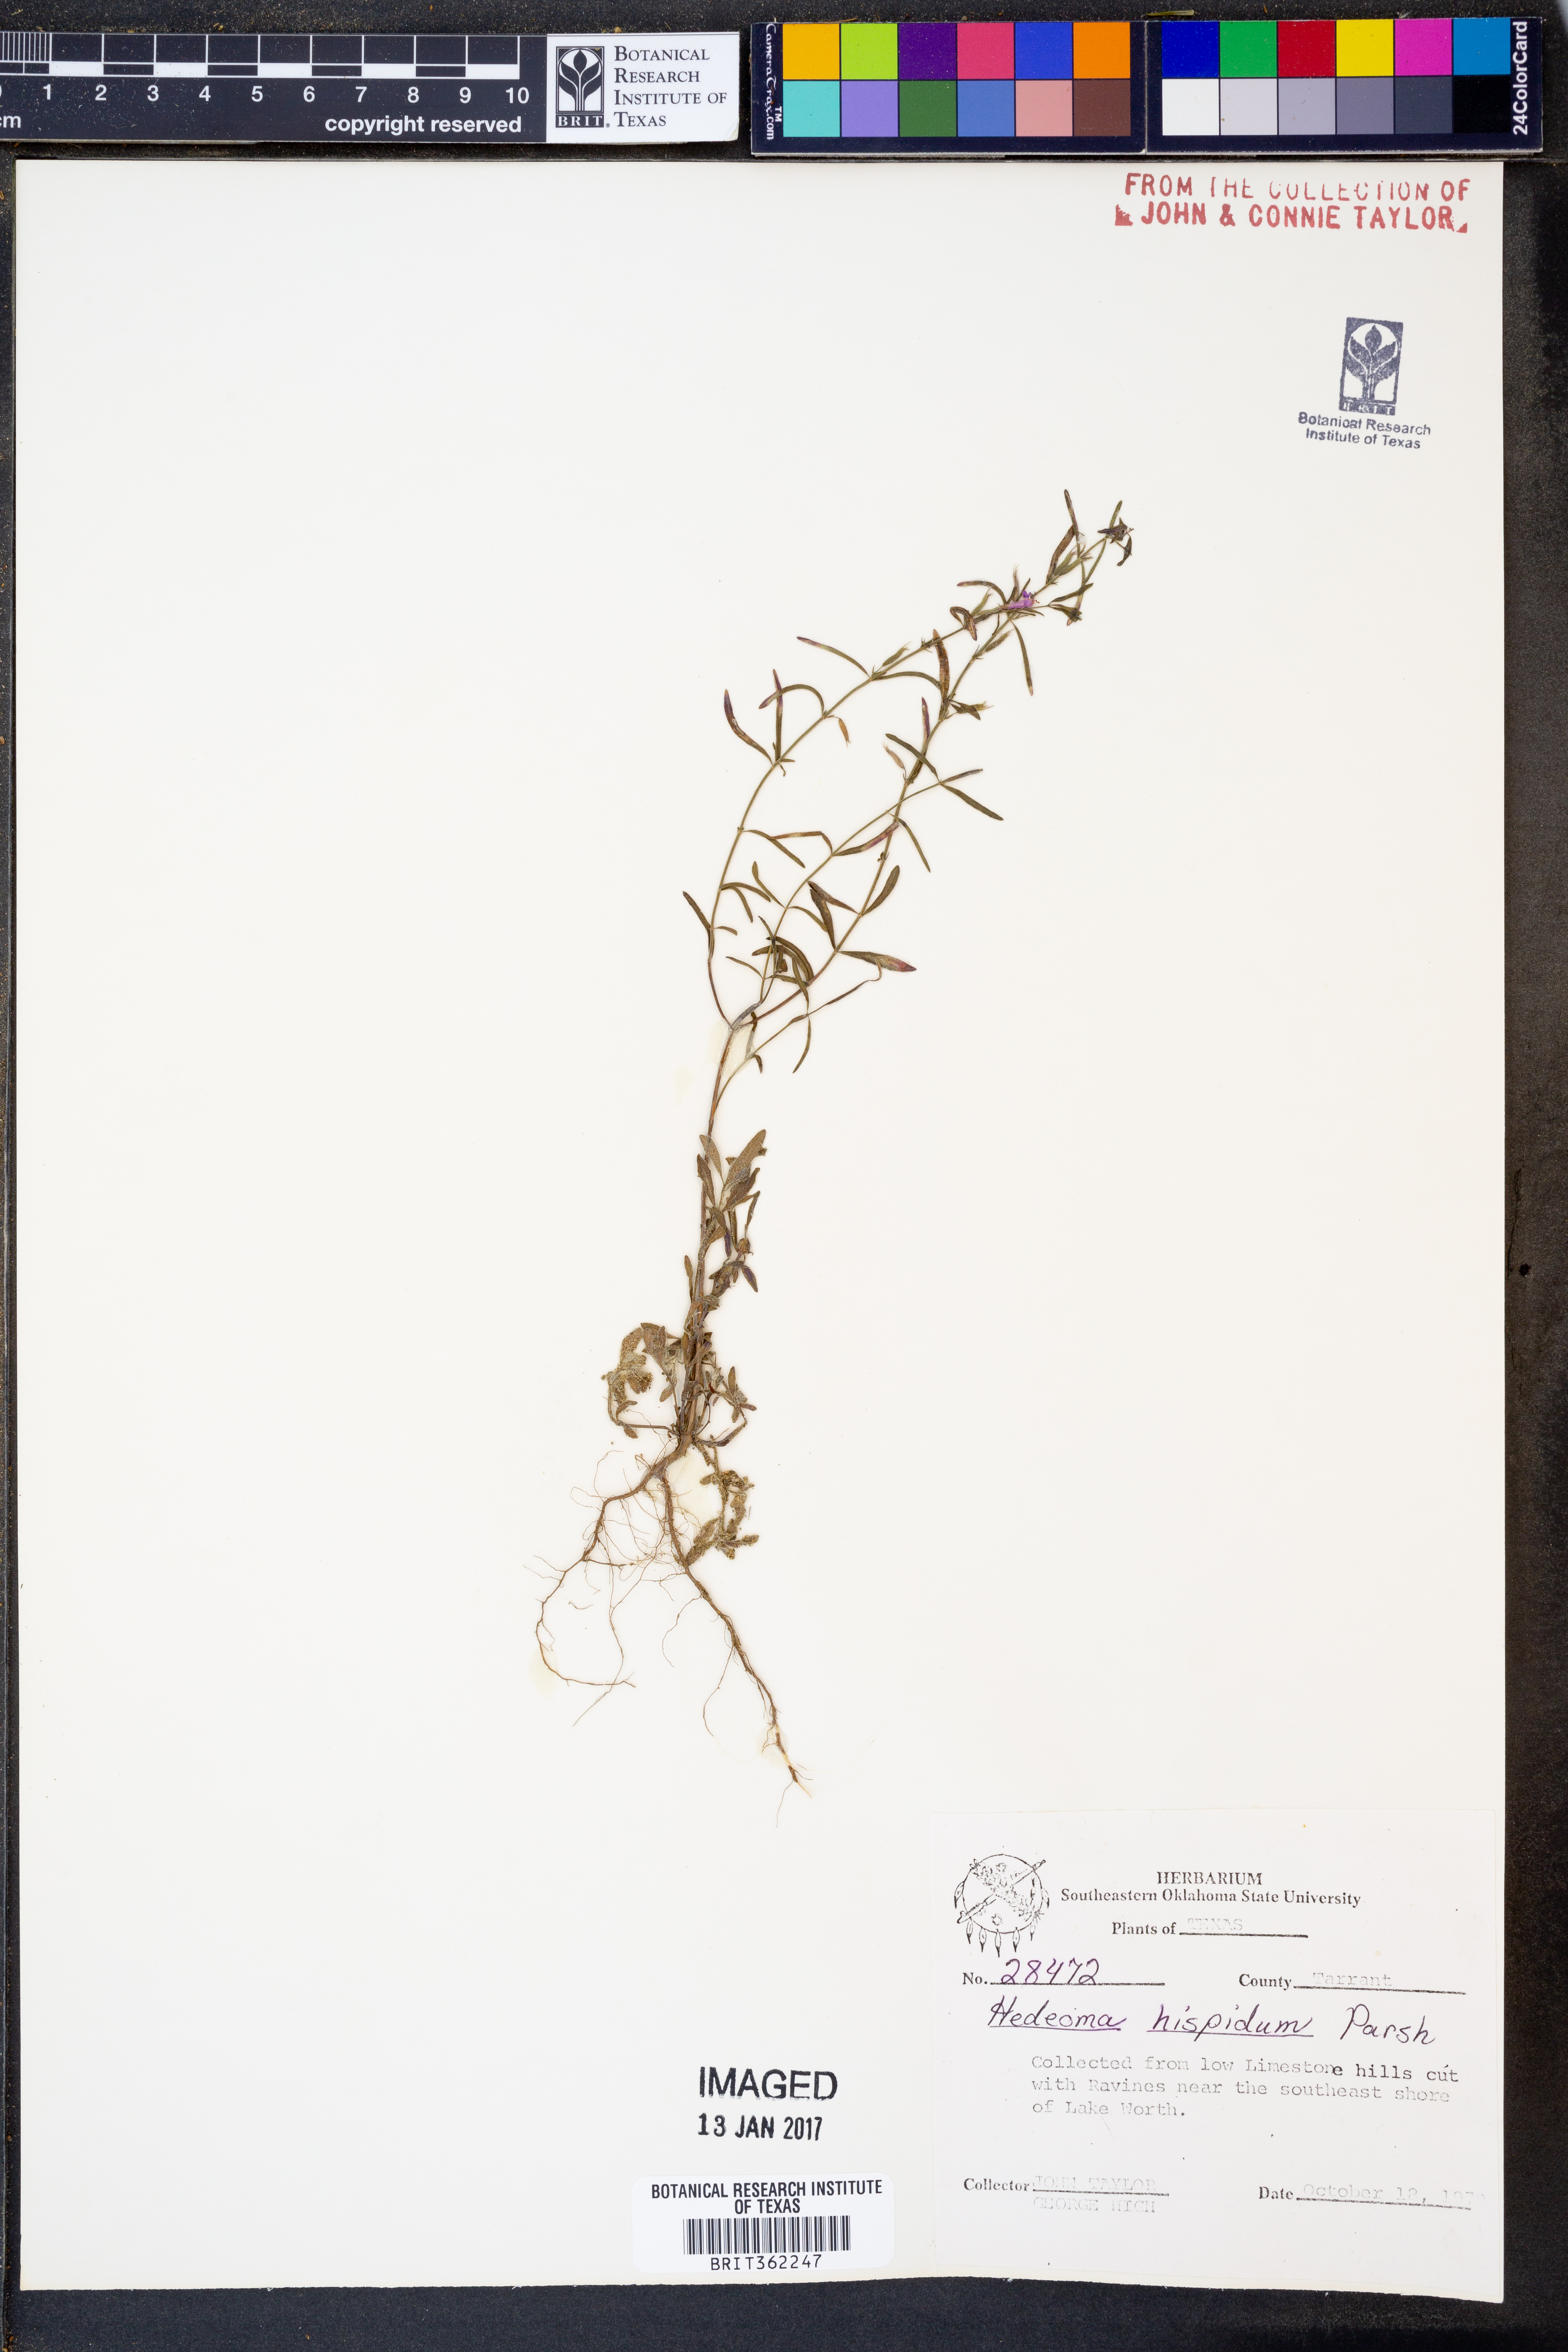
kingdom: Plantae
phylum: Tracheophyta
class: Magnoliopsida
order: Lamiales
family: Lamiaceae
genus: Hedeoma
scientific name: Hedeoma hispida
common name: Mock pennyroyal
